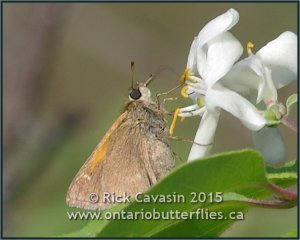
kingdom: Animalia
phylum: Arthropoda
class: Insecta
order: Lepidoptera
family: Hesperiidae
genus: Polites
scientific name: Polites themistocles
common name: Tawny-edged Skipper
